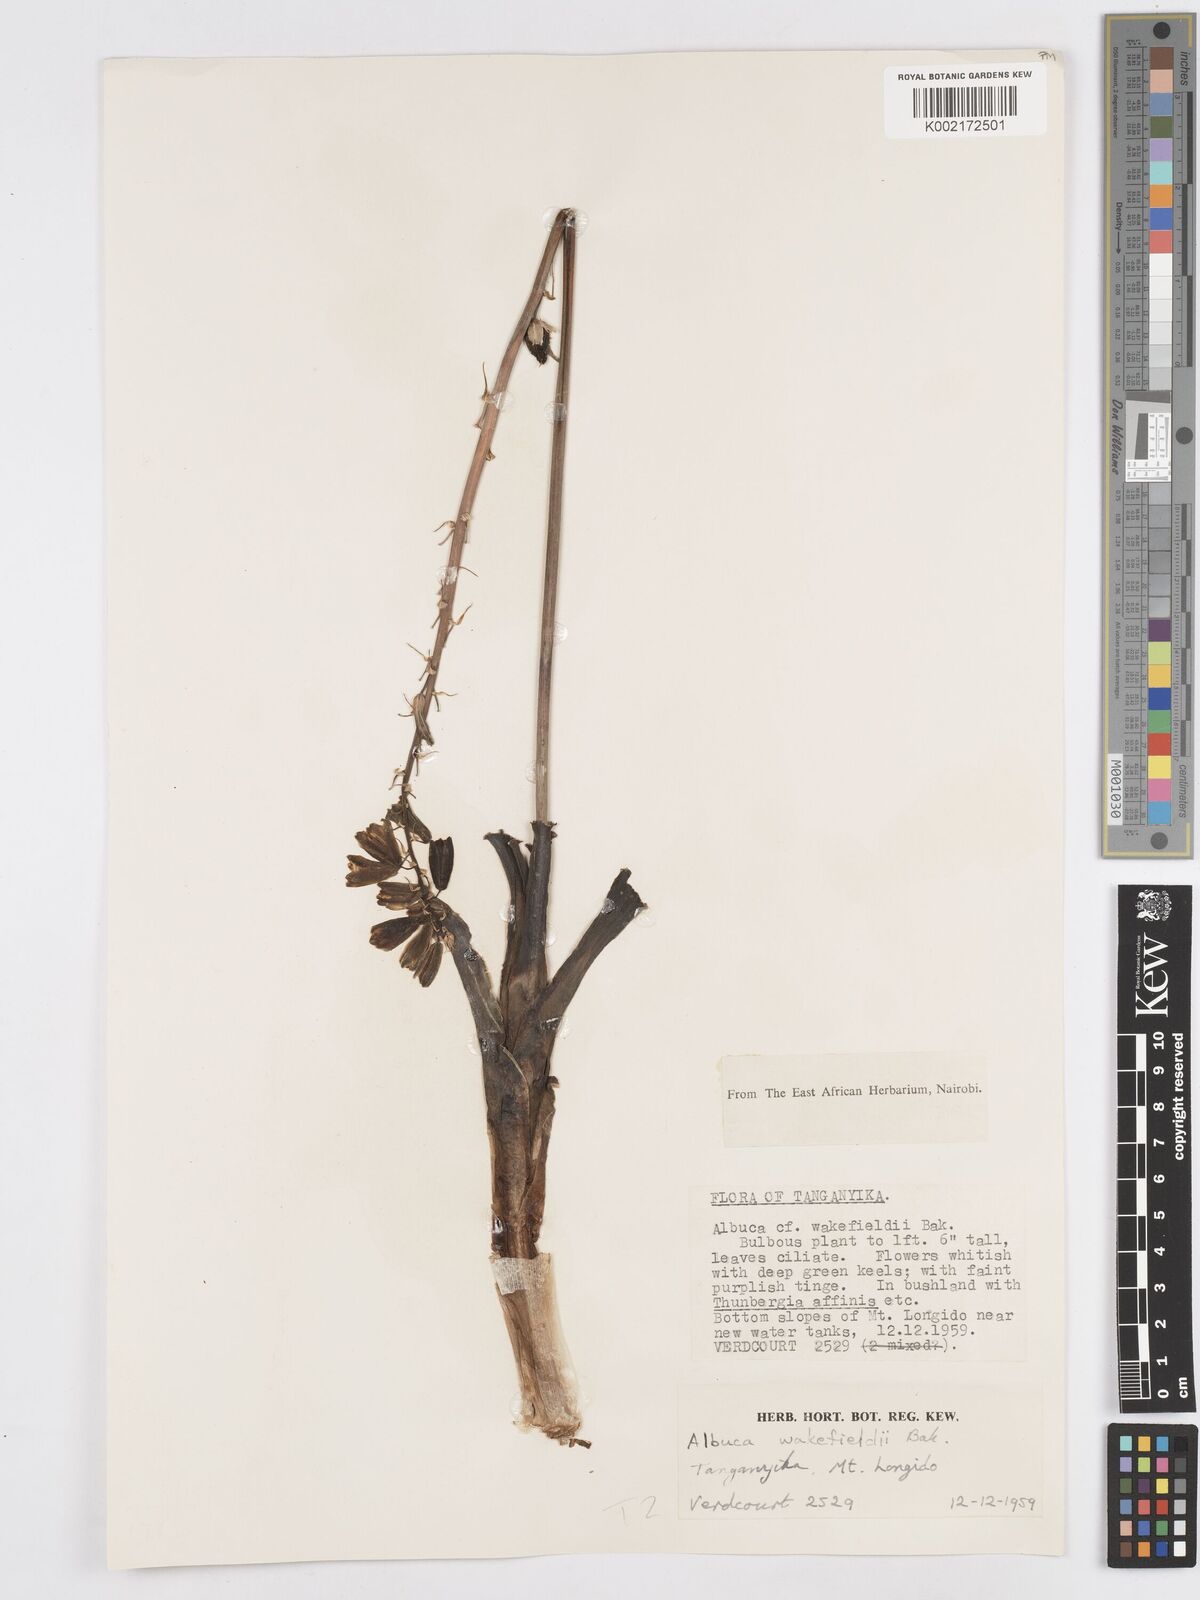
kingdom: Plantae
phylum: Tracheophyta
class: Liliopsida
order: Asparagales
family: Asparagaceae
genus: Albuca
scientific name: Albuca abyssinica
